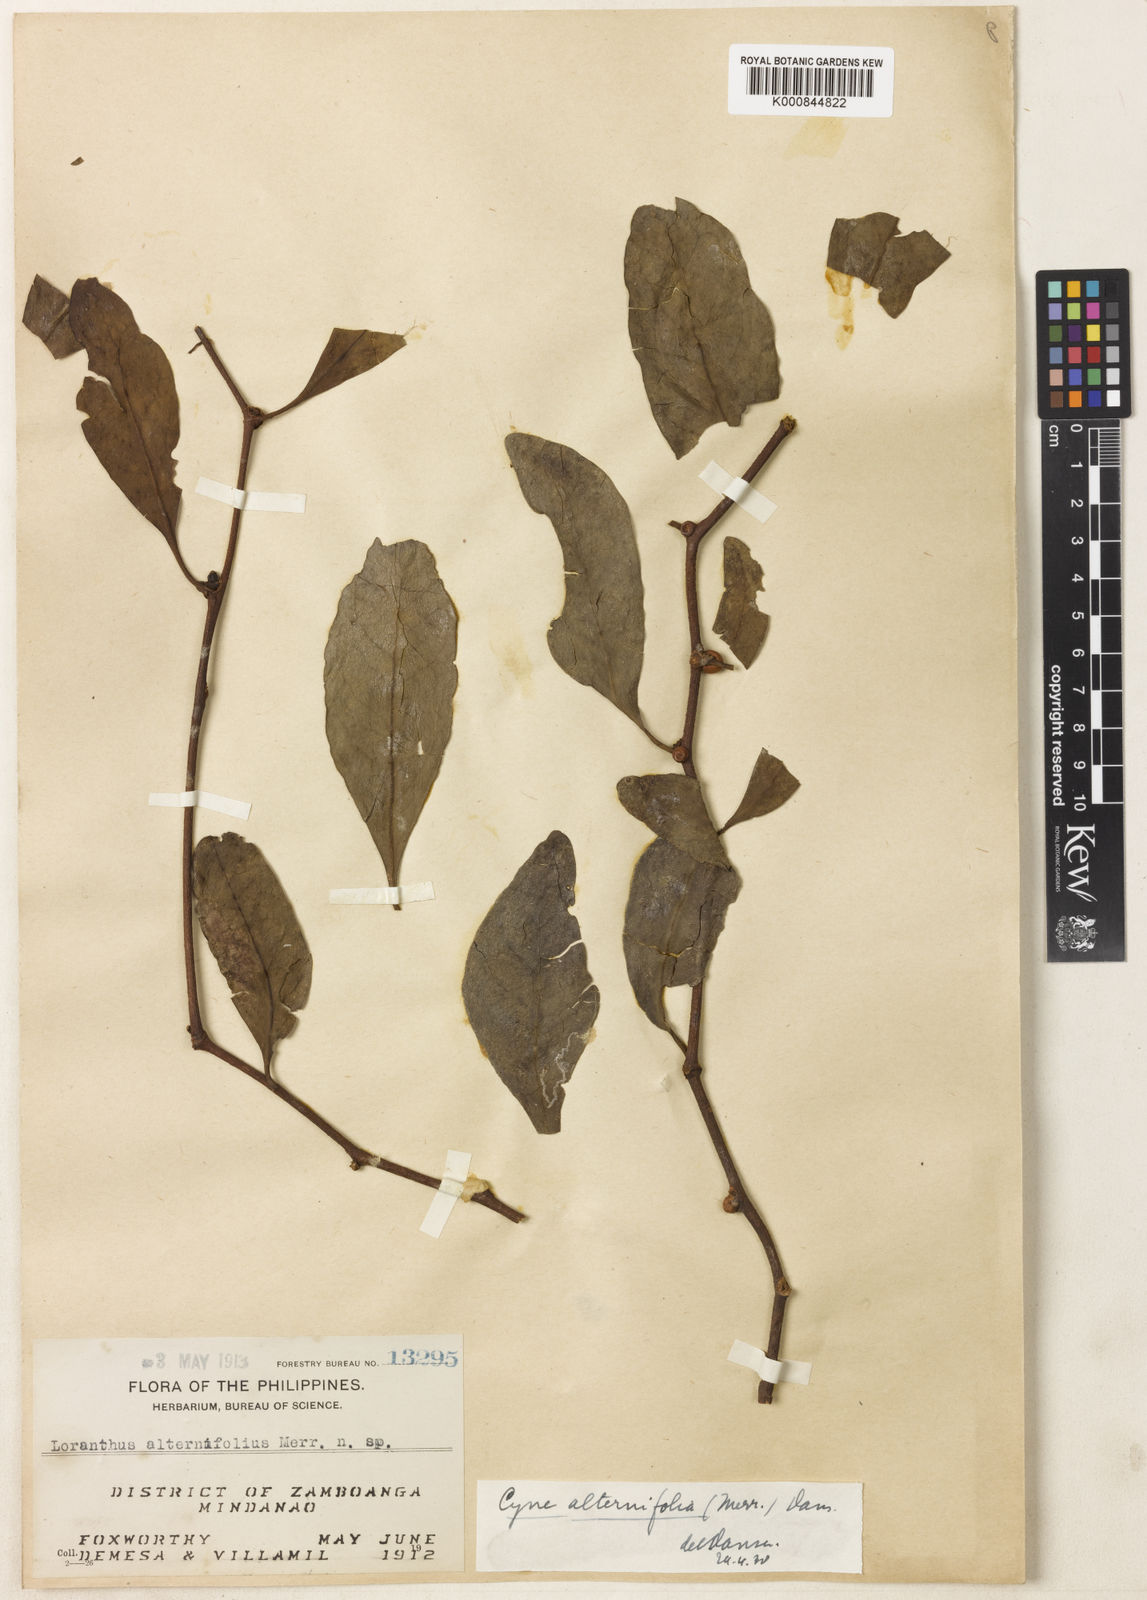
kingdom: Plantae
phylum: Tracheophyta
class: Magnoliopsida
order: Santalales
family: Loranthaceae
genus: Cyne
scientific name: Cyne banahaensis
